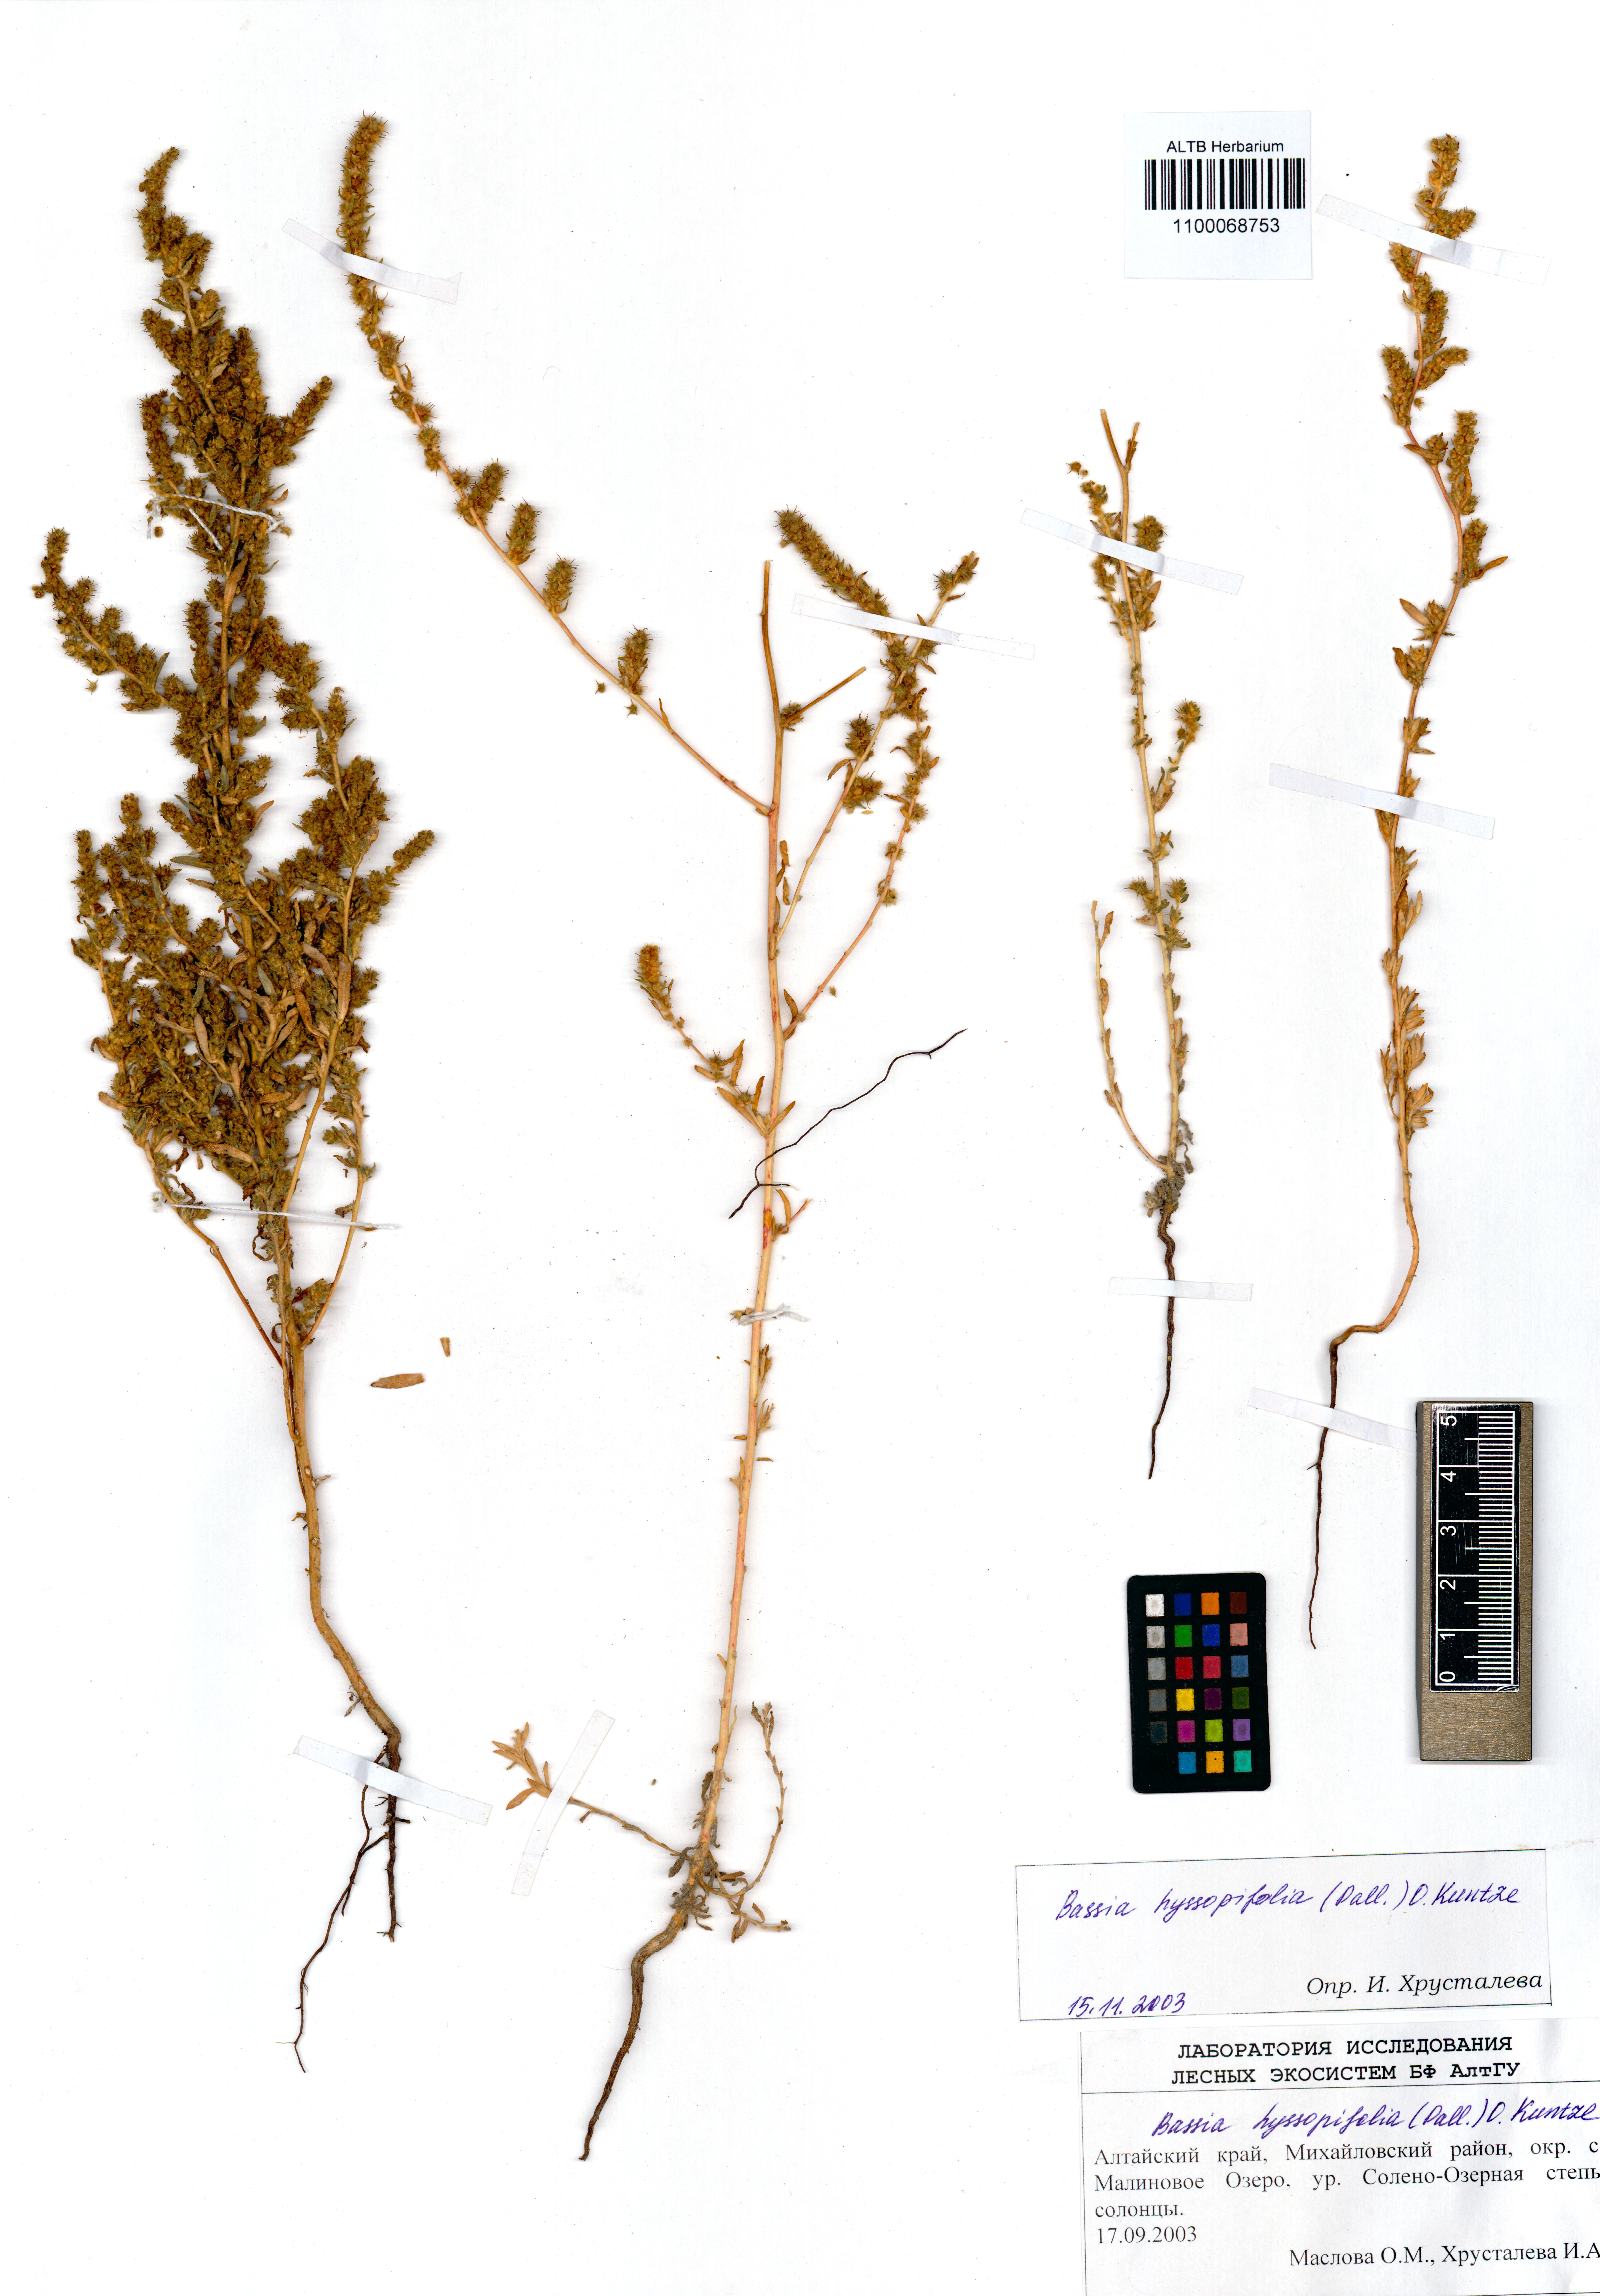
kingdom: Plantae
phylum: Tracheophyta
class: Magnoliopsida
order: Caryophyllales
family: Amaranthaceae
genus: Bassia
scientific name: Bassia hyssopifolia
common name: Fivehorn smotherweed
